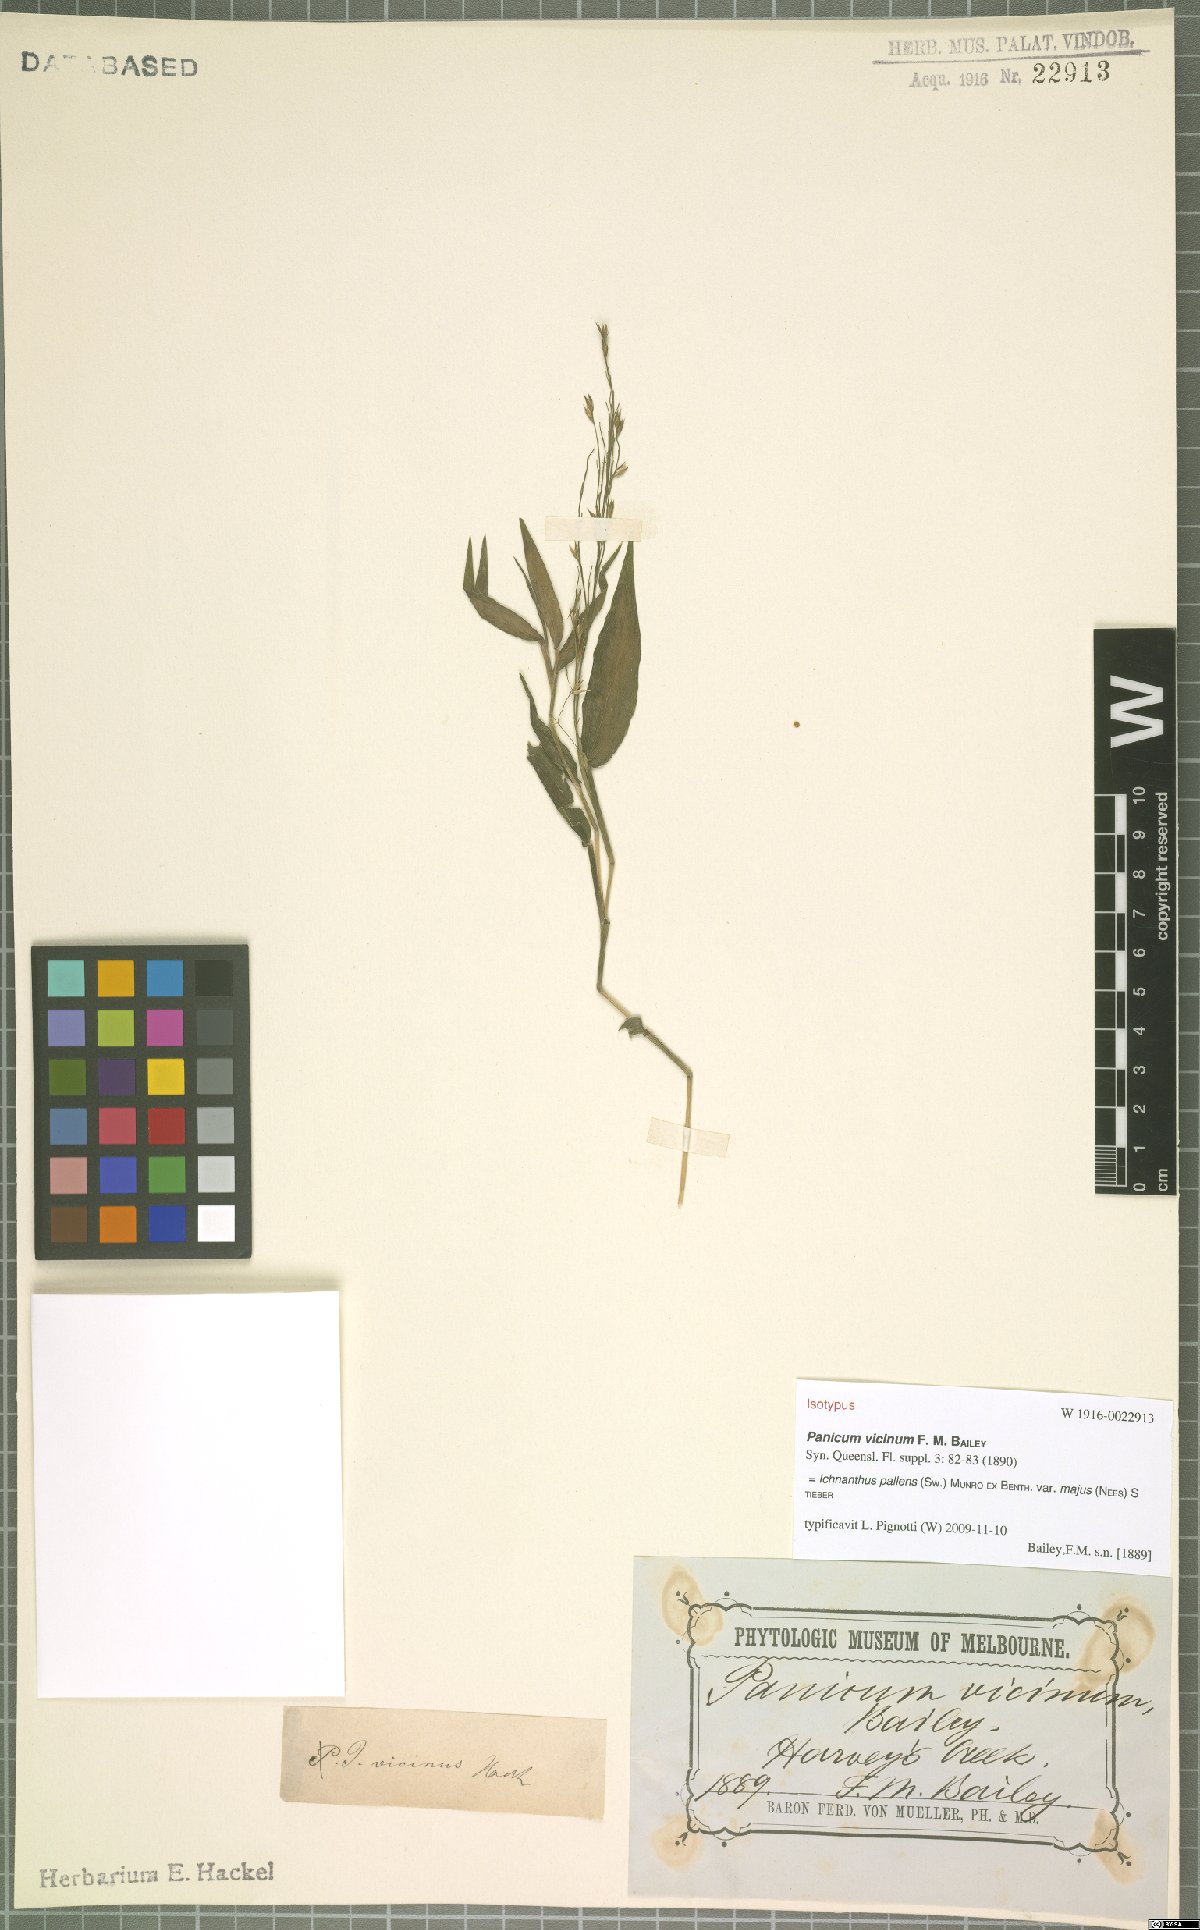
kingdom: Plantae
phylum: Tracheophyta
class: Liliopsida
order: Poales
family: Poaceae
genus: Ichnanthus
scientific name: Ichnanthus pallens
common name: Water grass
